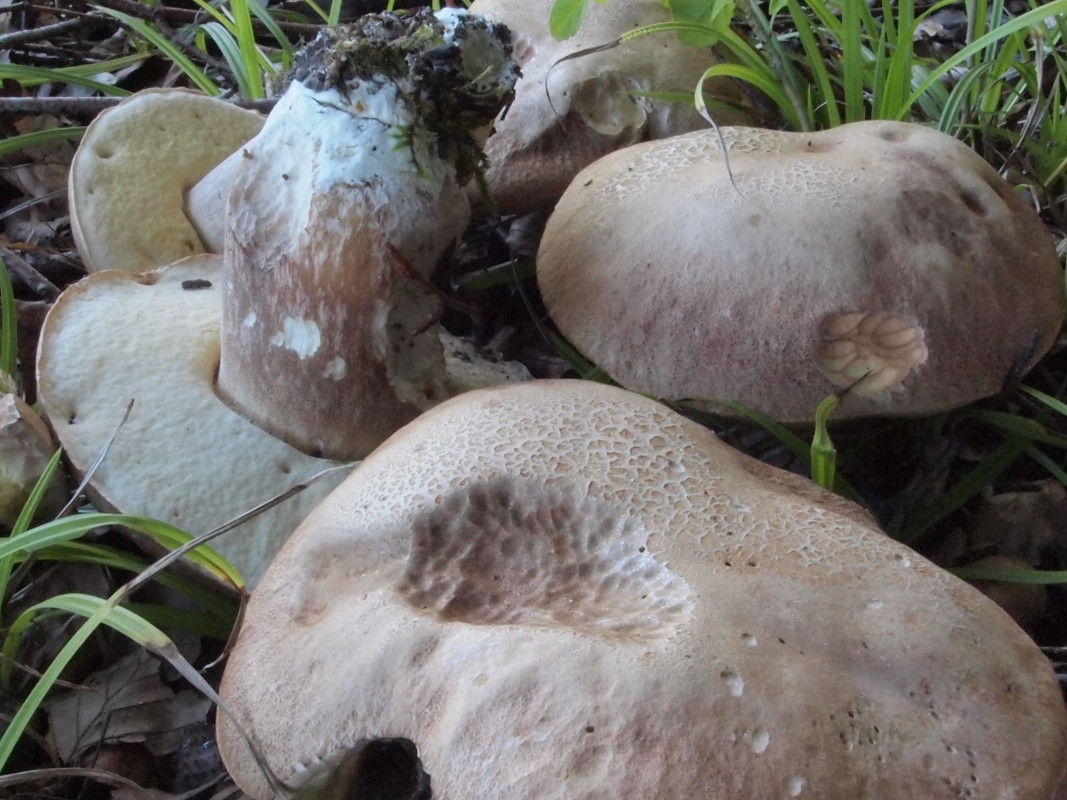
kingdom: Fungi
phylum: Basidiomycota
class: Agaricomycetes
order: Boletales
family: Boletaceae
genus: Boletus
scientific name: Boletus reticulatus
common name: sommer-rørhat
